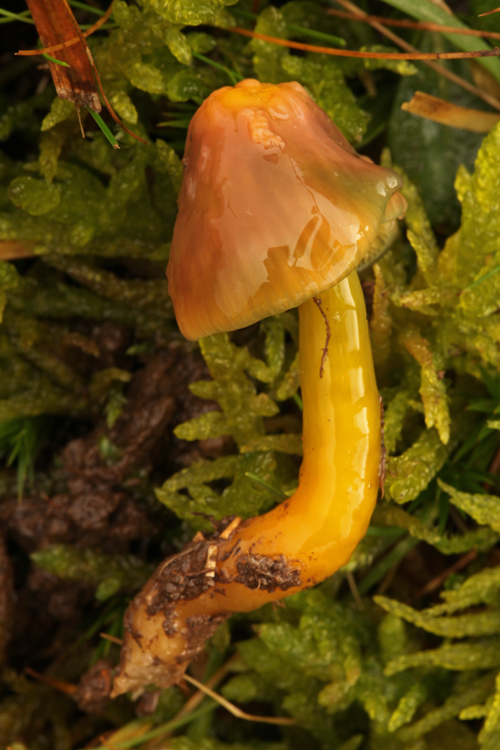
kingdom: Fungi
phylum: Basidiomycota
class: Agaricomycetes
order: Agaricales
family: Hygrophoraceae
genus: Gliophorus
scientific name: Gliophorus psittacinus
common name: papegøje-vokshat
